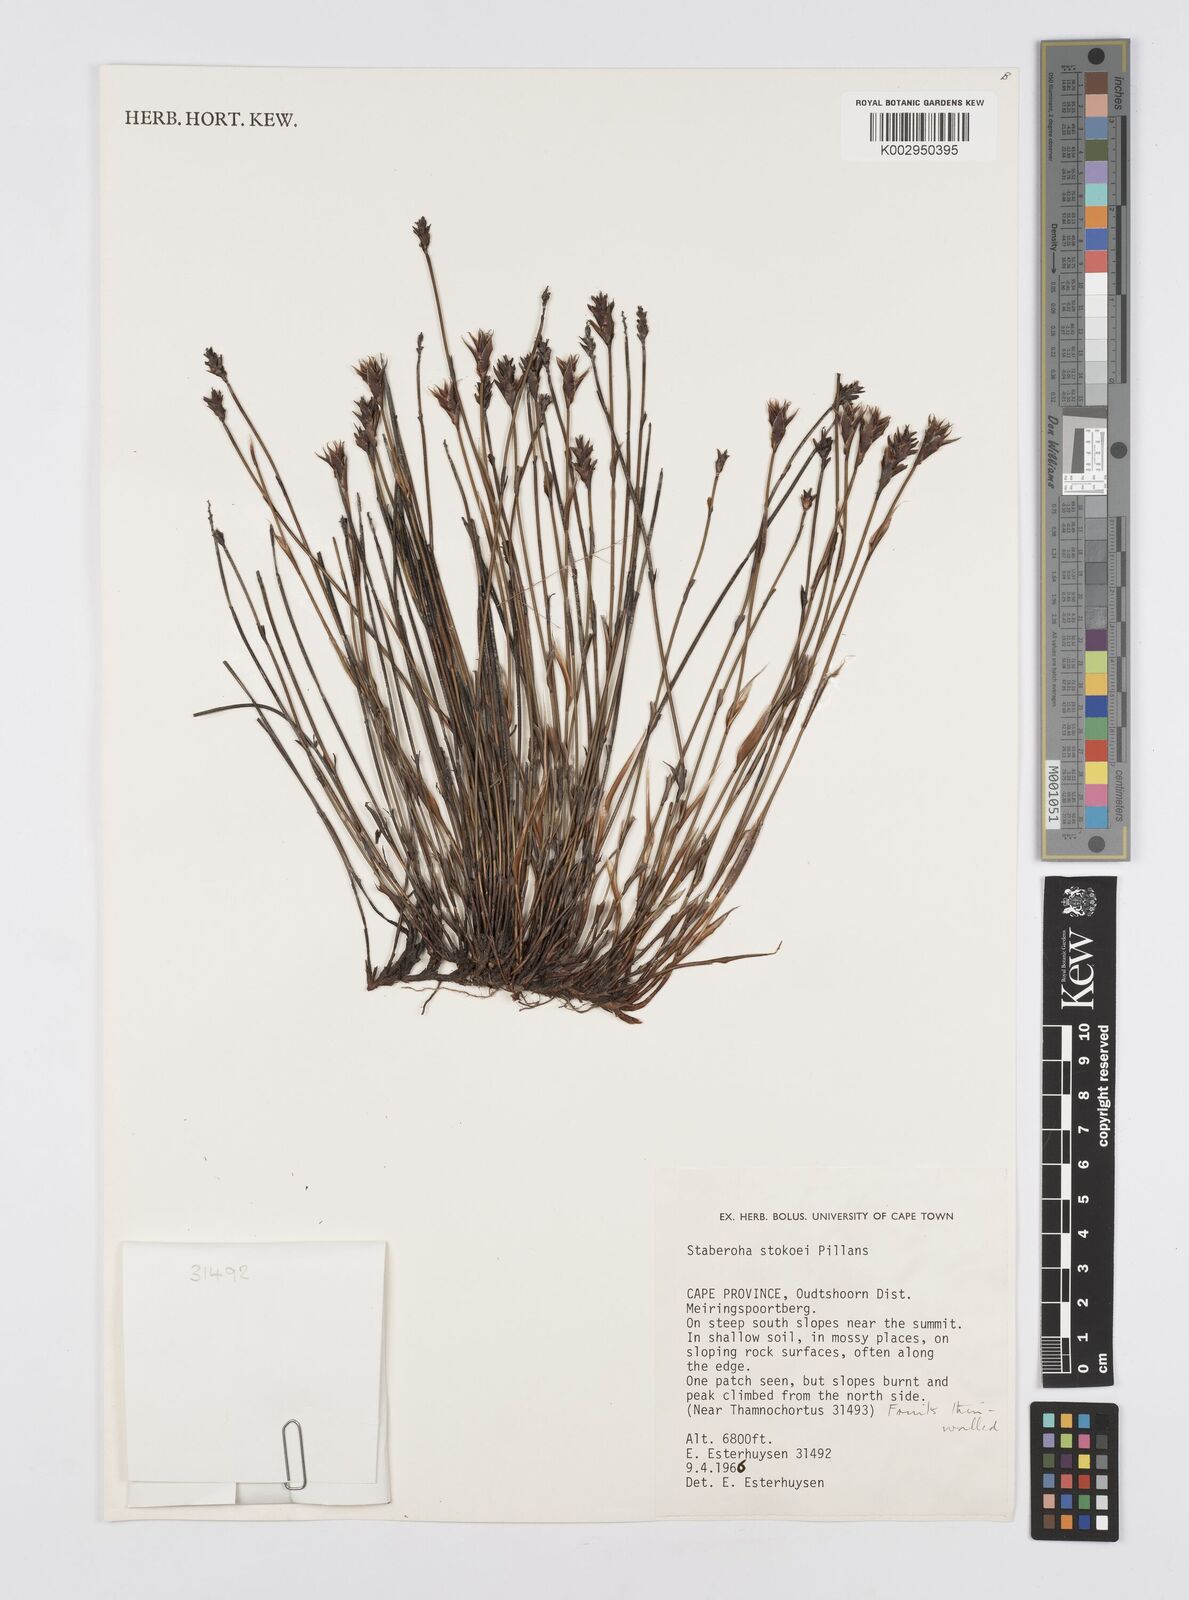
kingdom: Plantae
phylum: Tracheophyta
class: Liliopsida
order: Poales
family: Restionaceae
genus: Staberoha
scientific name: Staberoha stokoei
